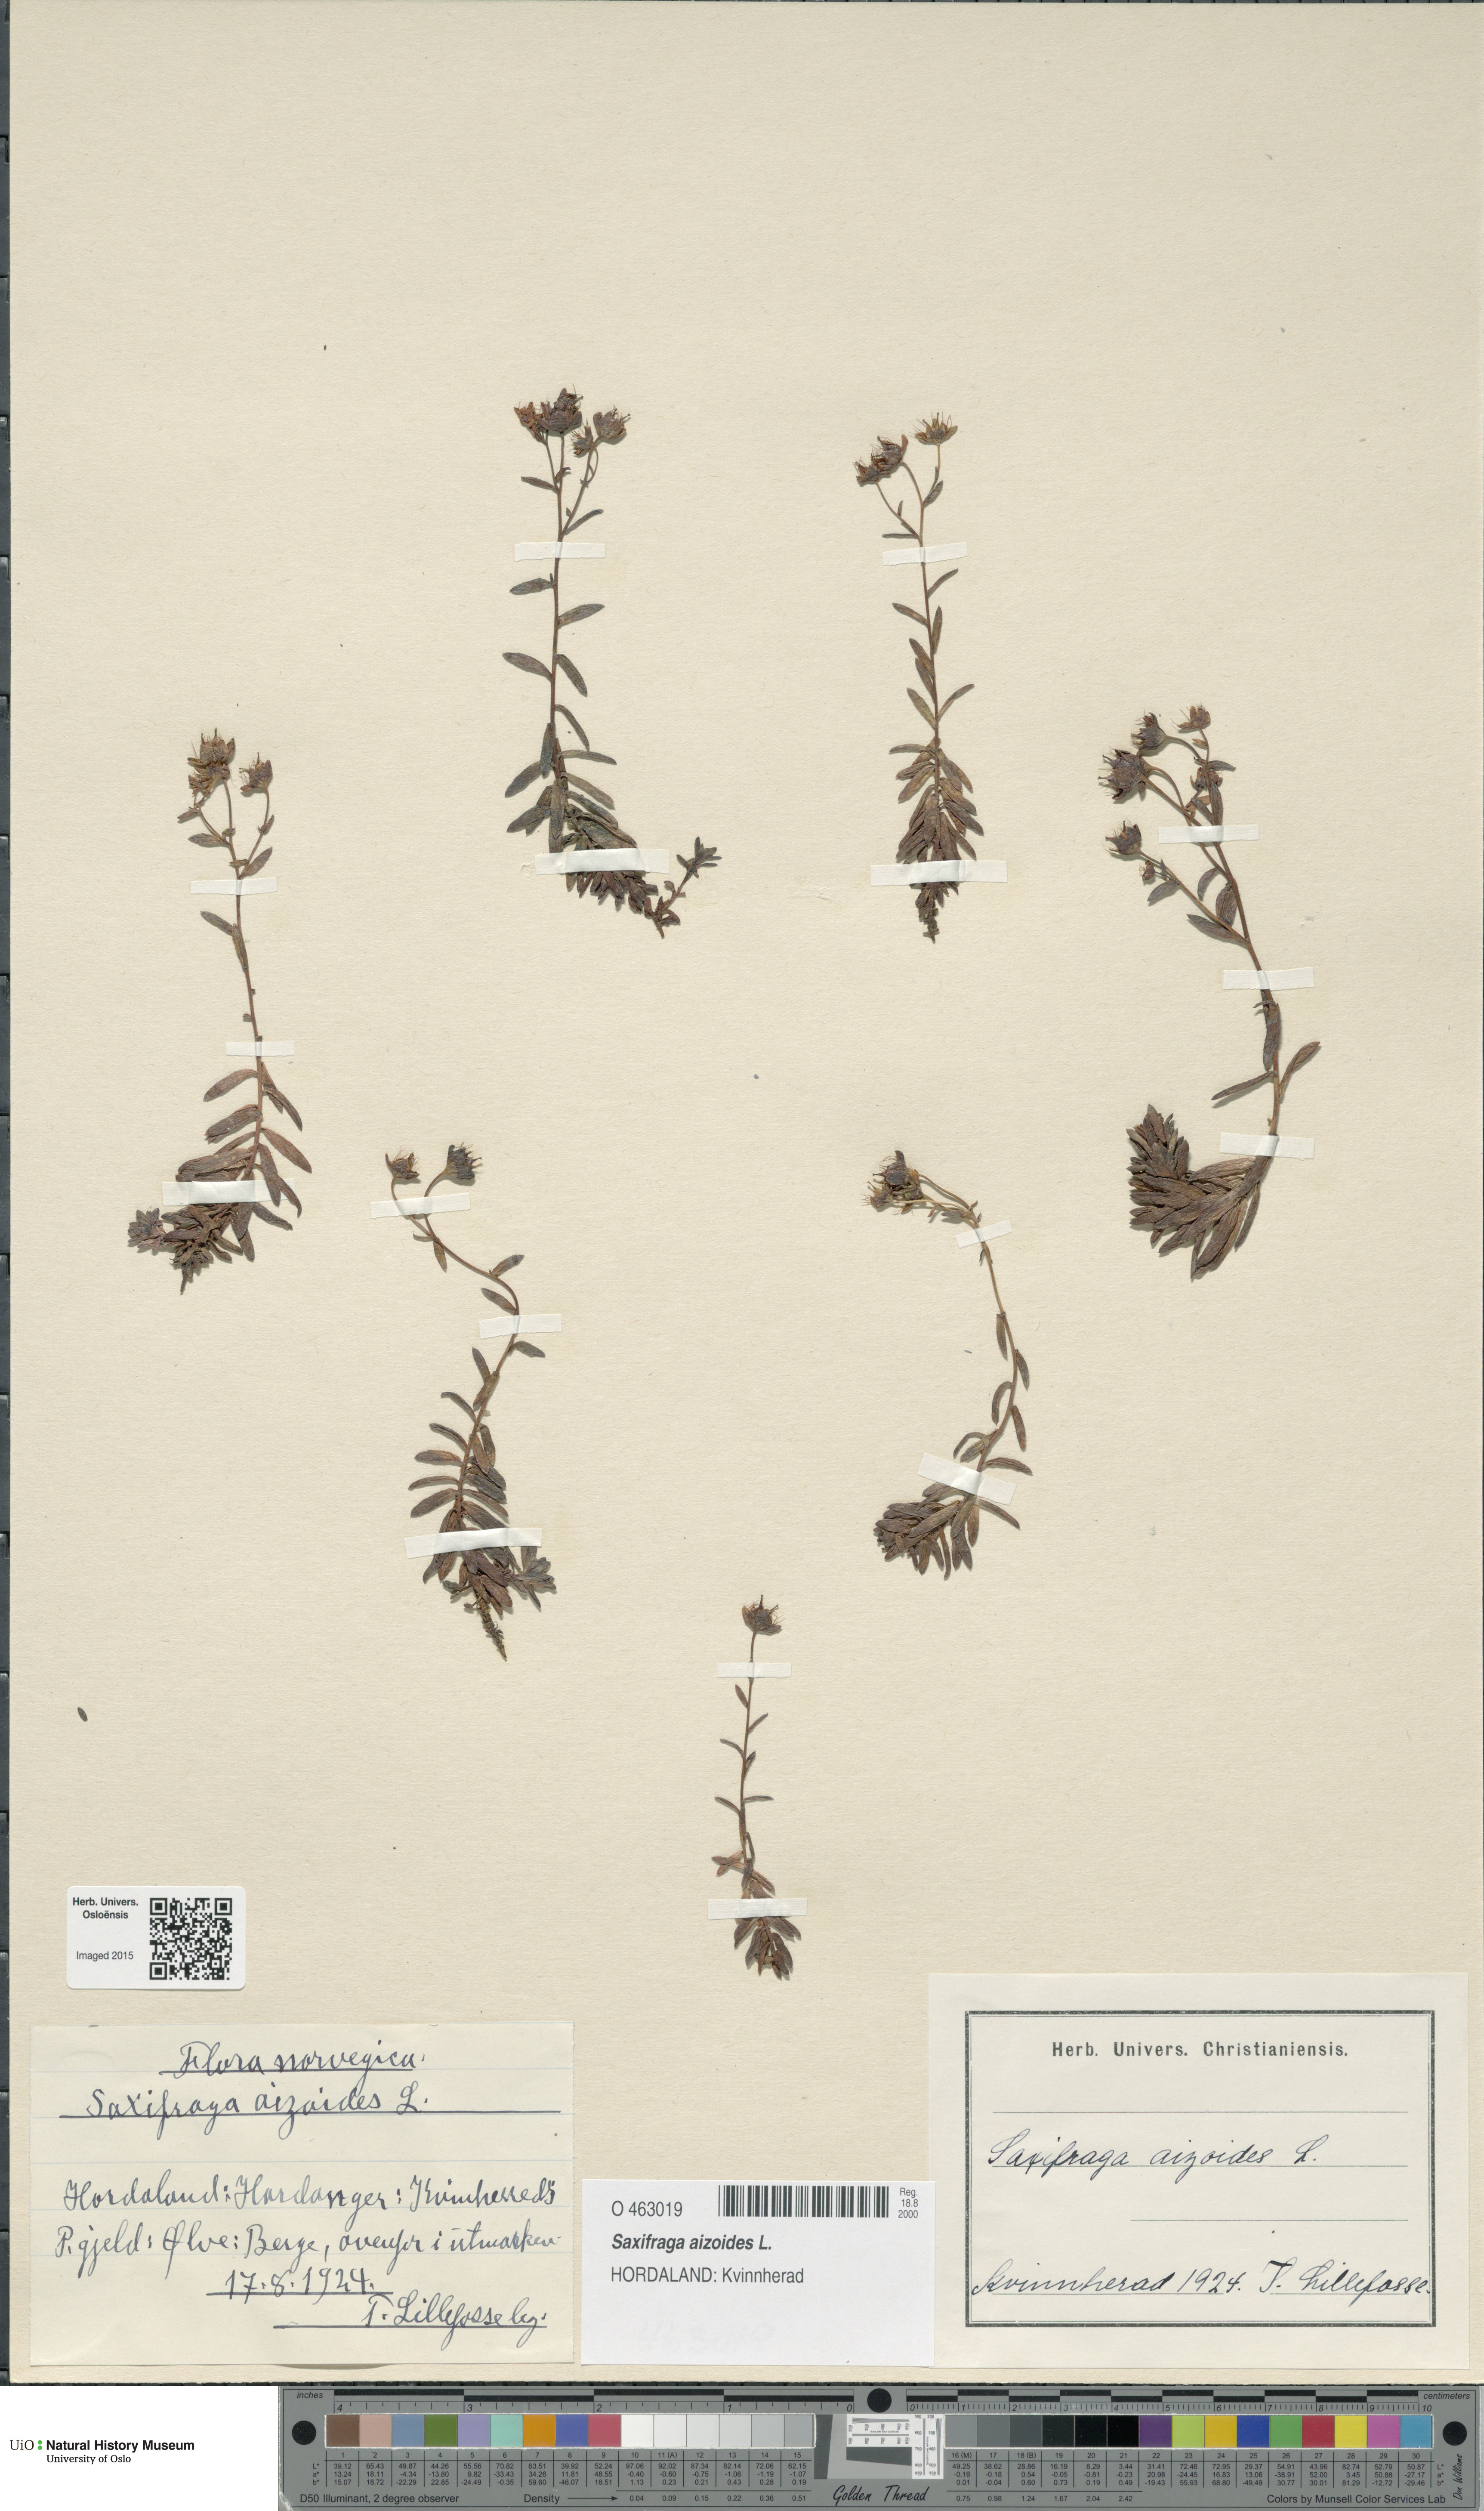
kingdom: Plantae
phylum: Tracheophyta
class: Magnoliopsida
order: Saxifragales
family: Saxifragaceae
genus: Saxifraga
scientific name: Saxifraga aizoides
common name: Yellow mountain saxifrage
